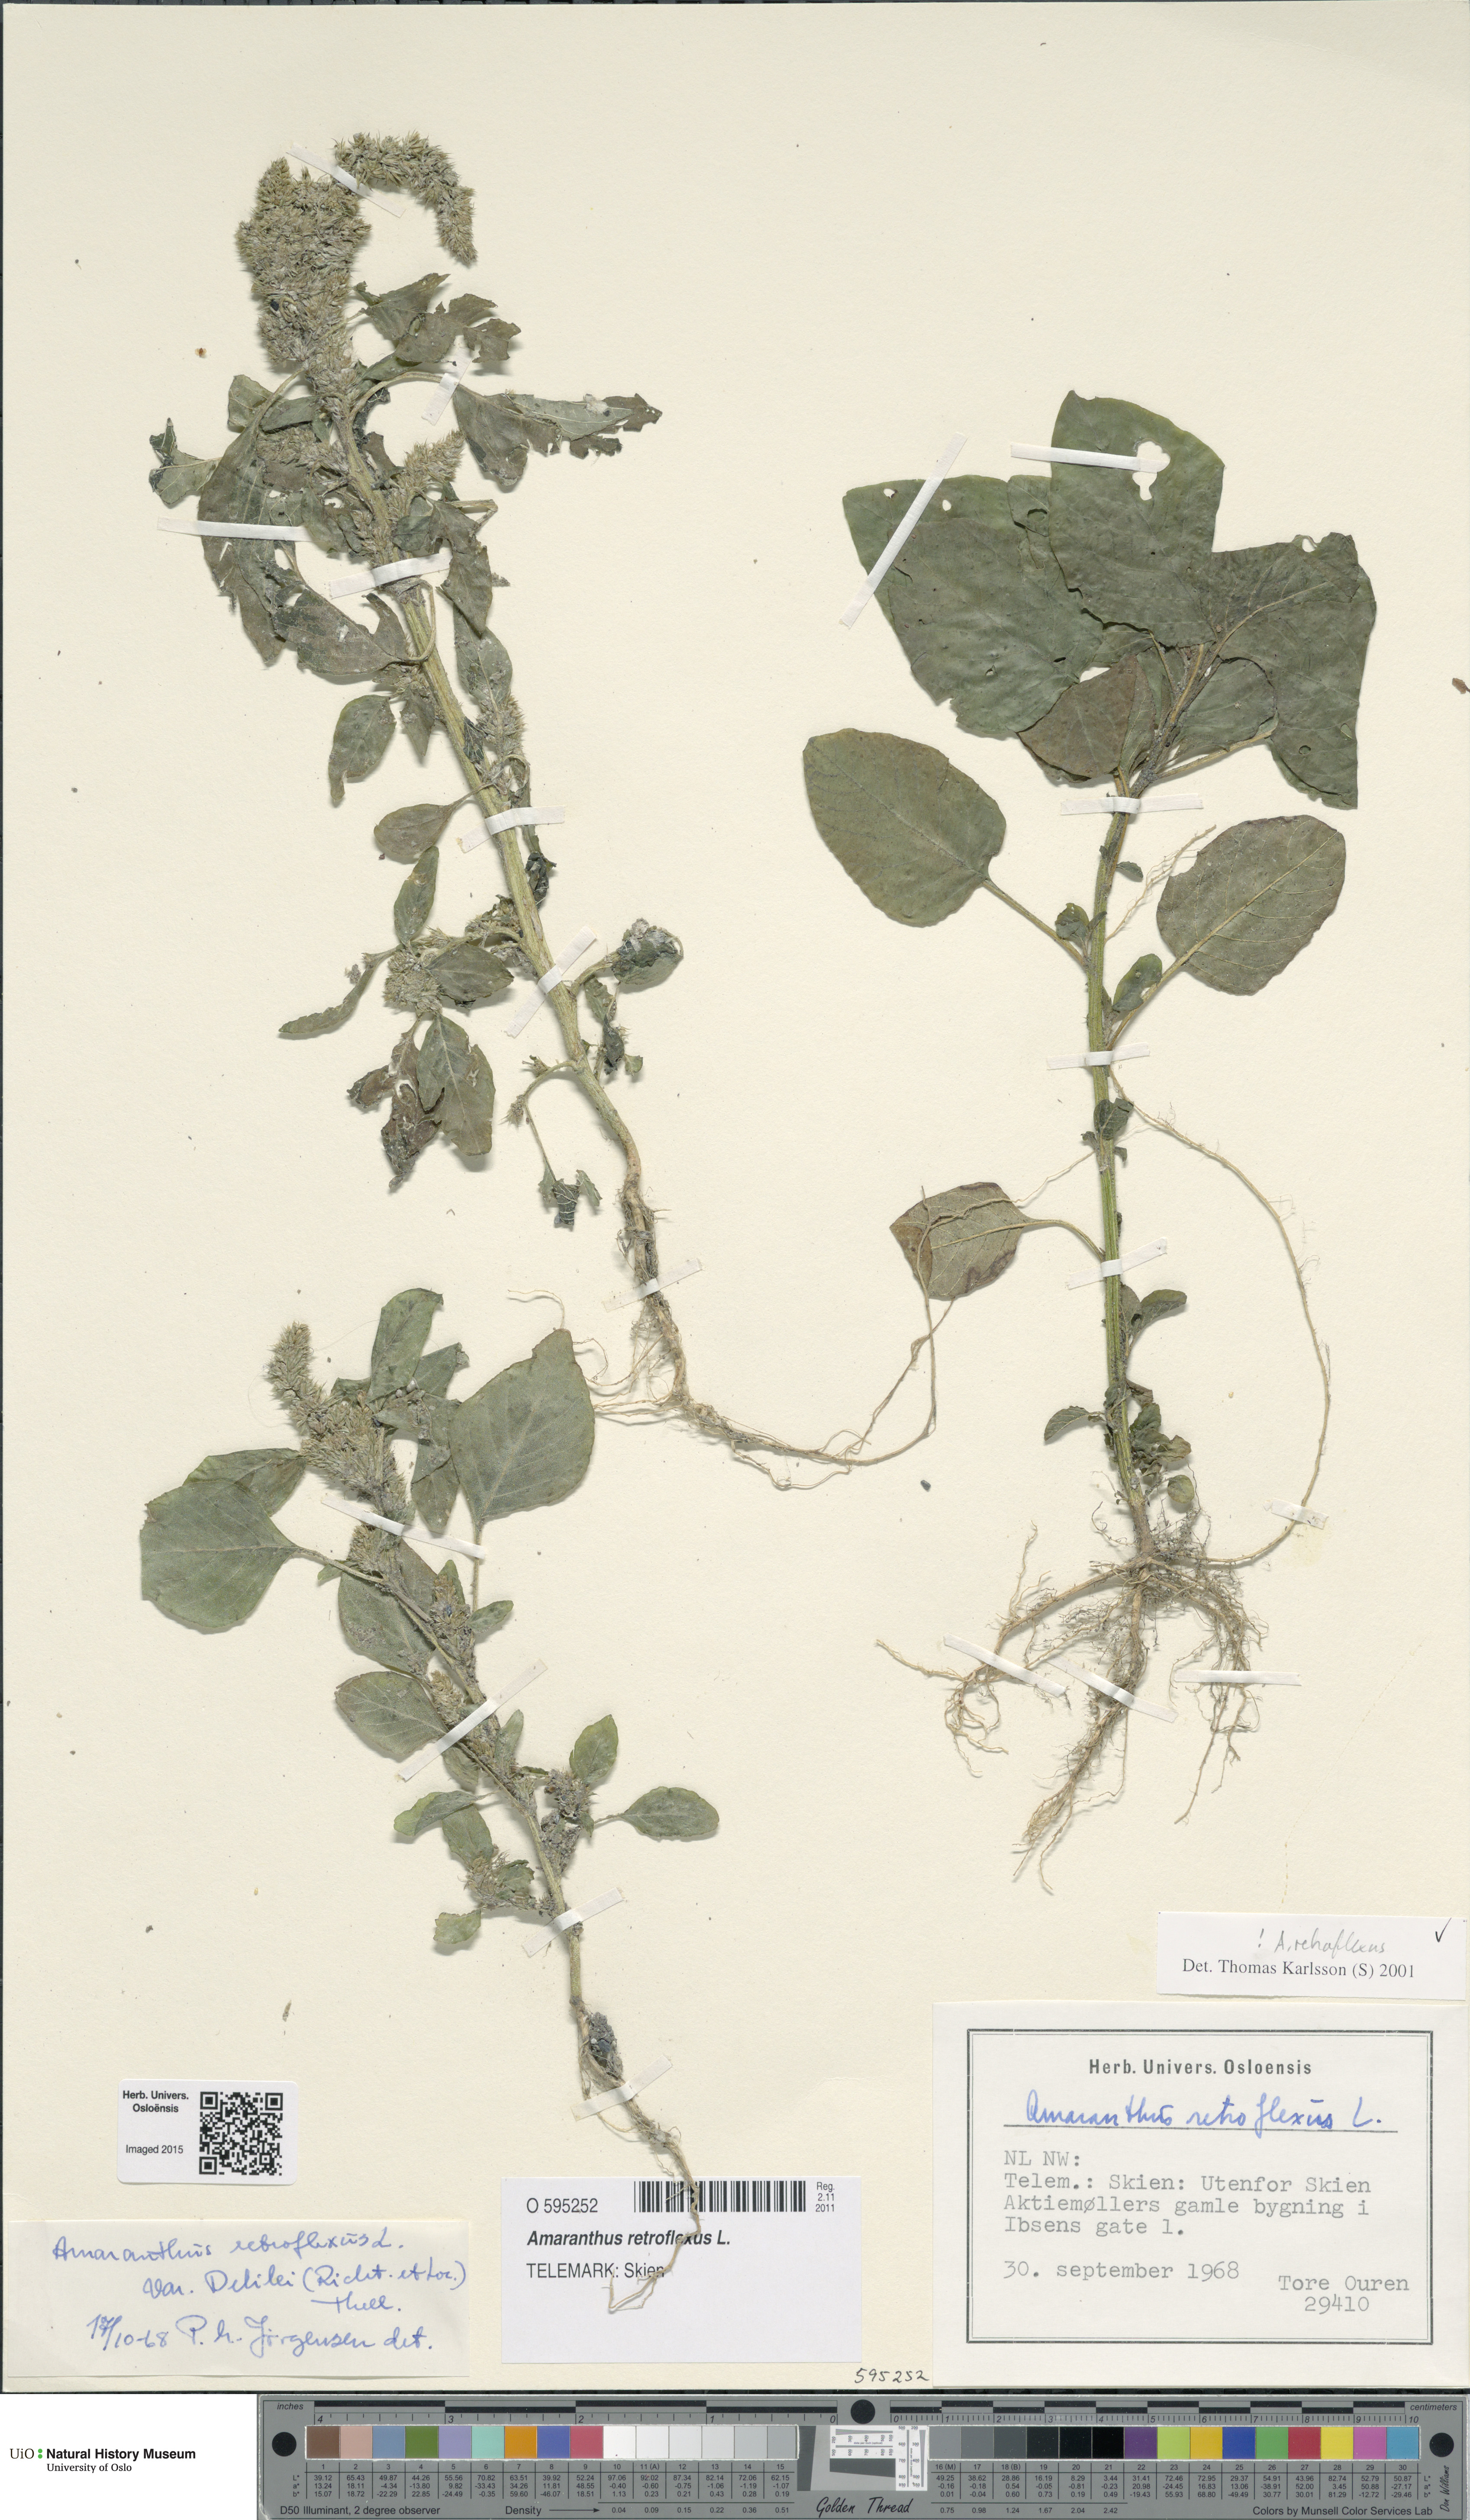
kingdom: Plantae
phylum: Tracheophyta
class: Magnoliopsida
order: Caryophyllales
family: Amaranthaceae
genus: Amaranthus
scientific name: Amaranthus retroflexus
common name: Redroot amaranth
